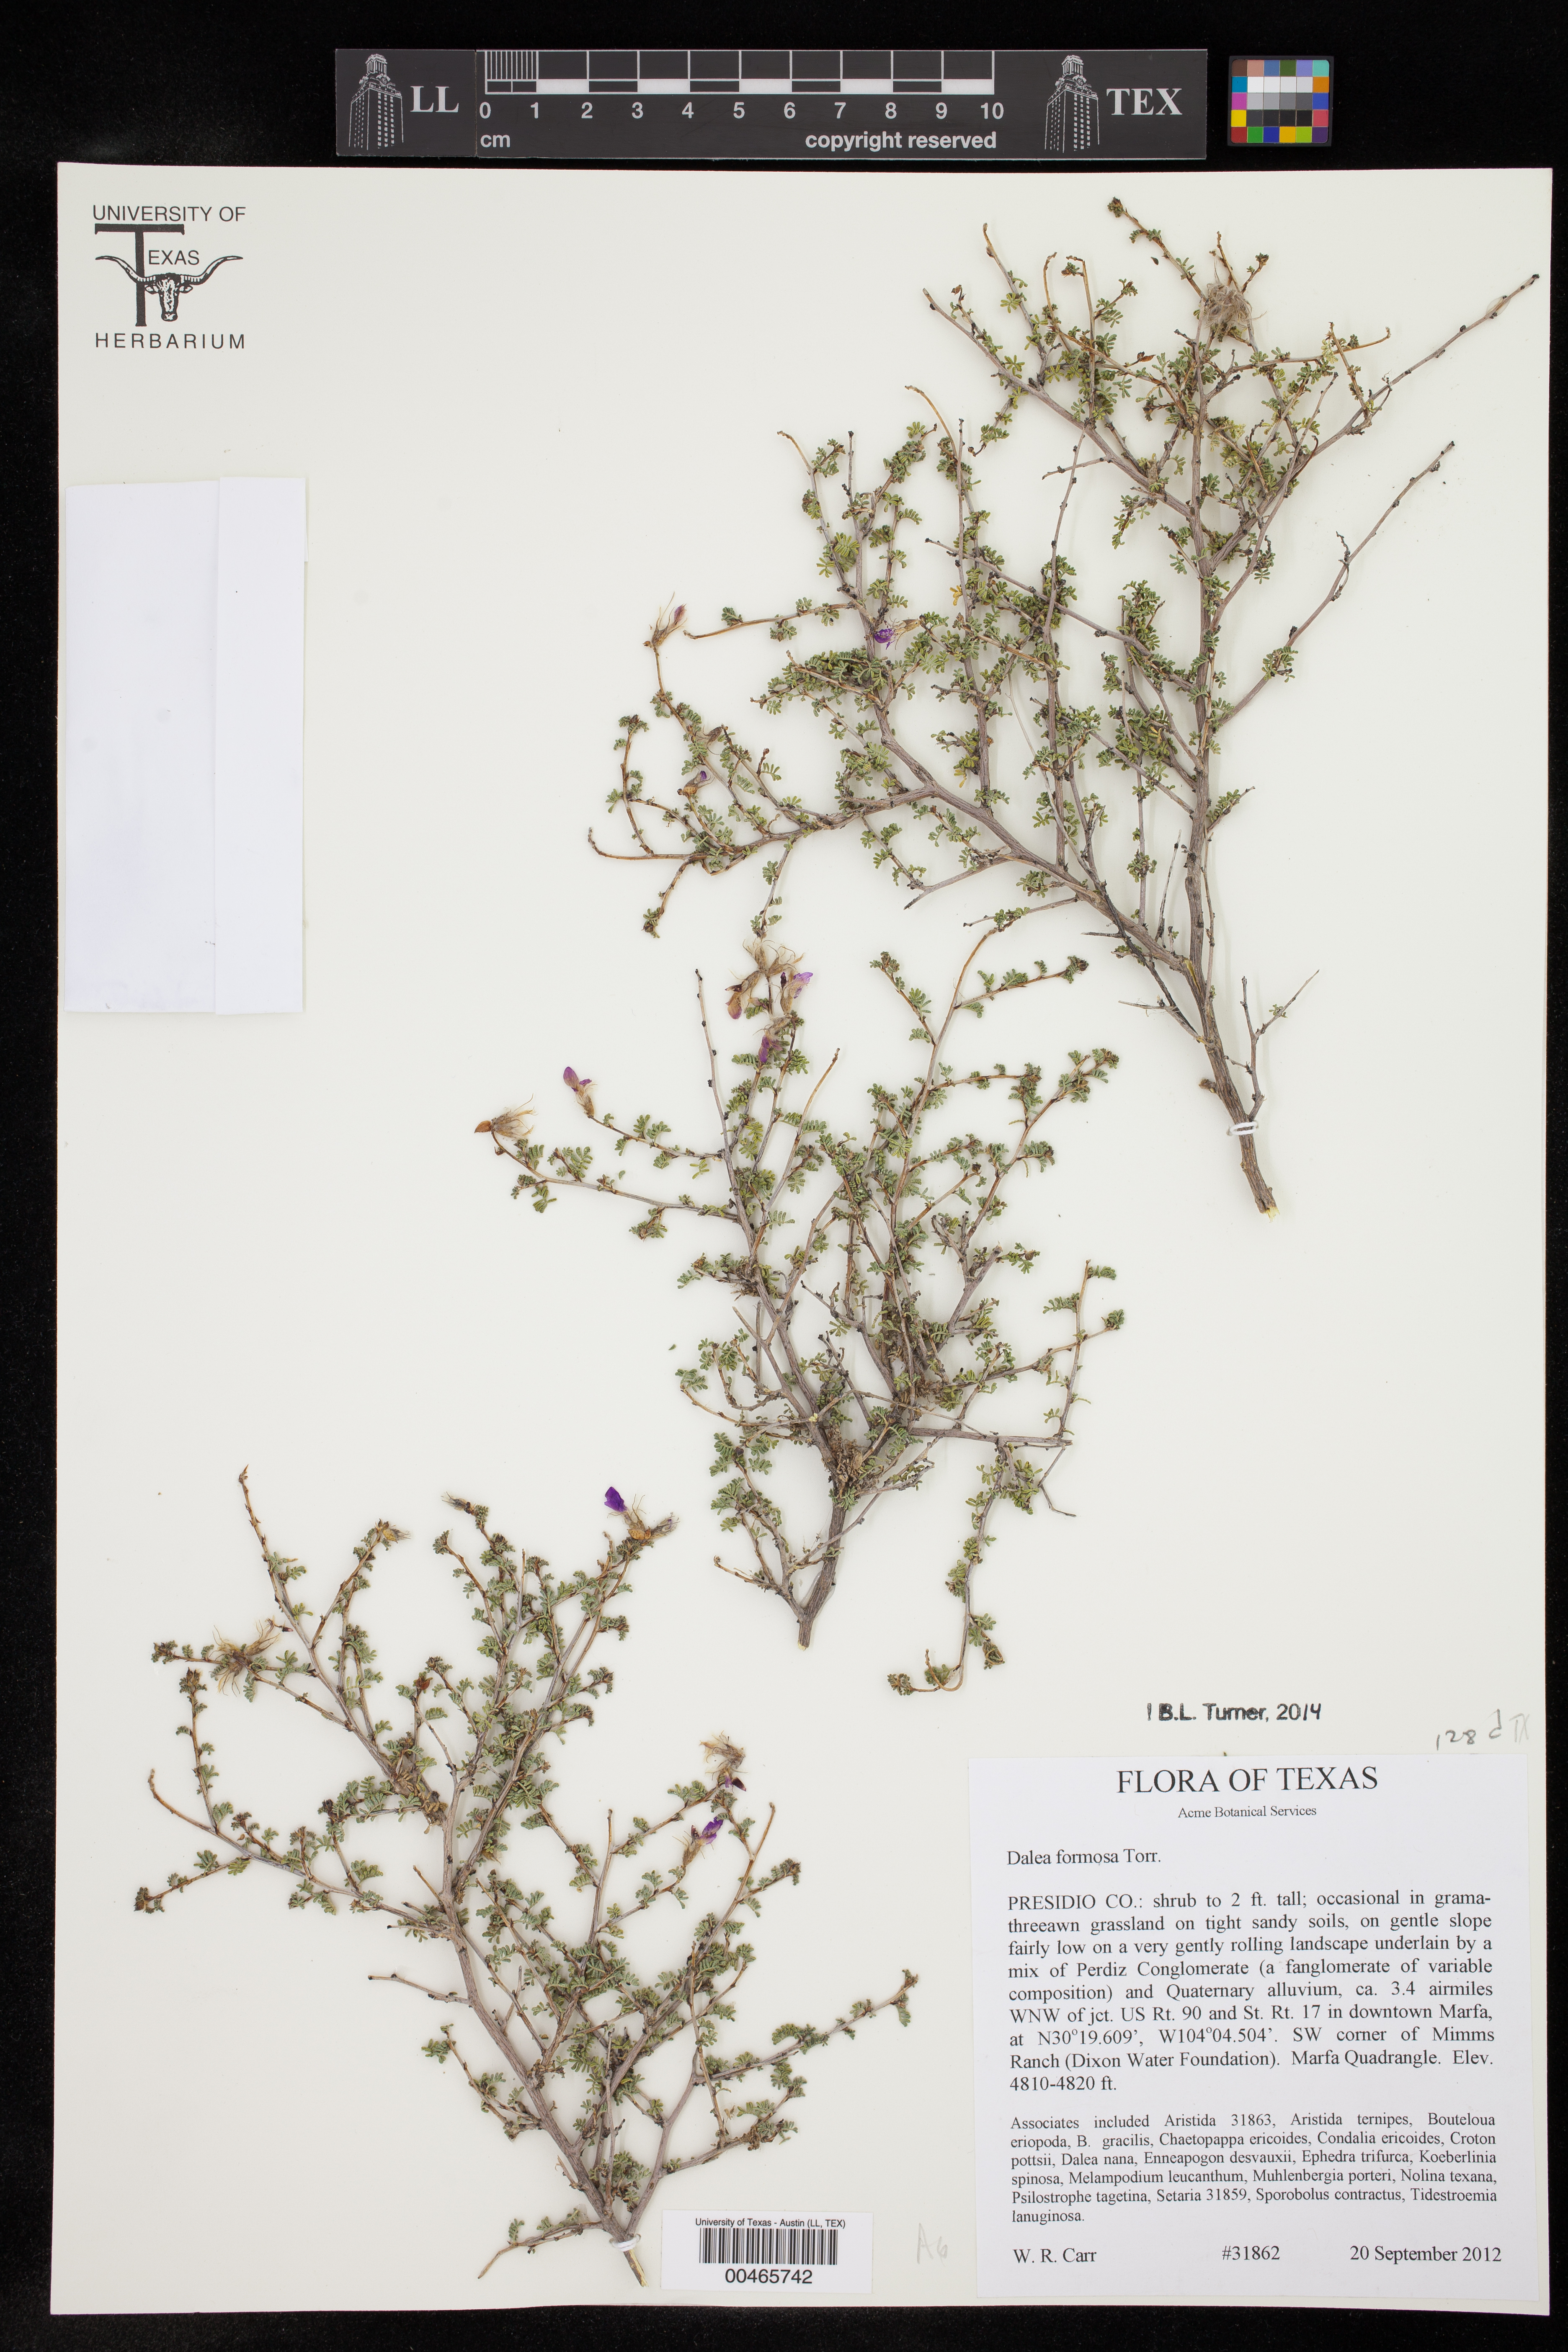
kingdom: Plantae
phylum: Tracheophyta
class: Magnoliopsida
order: Fabales
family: Fabaceae
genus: Dalea
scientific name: Dalea formosa
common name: Feather-plume dalea
